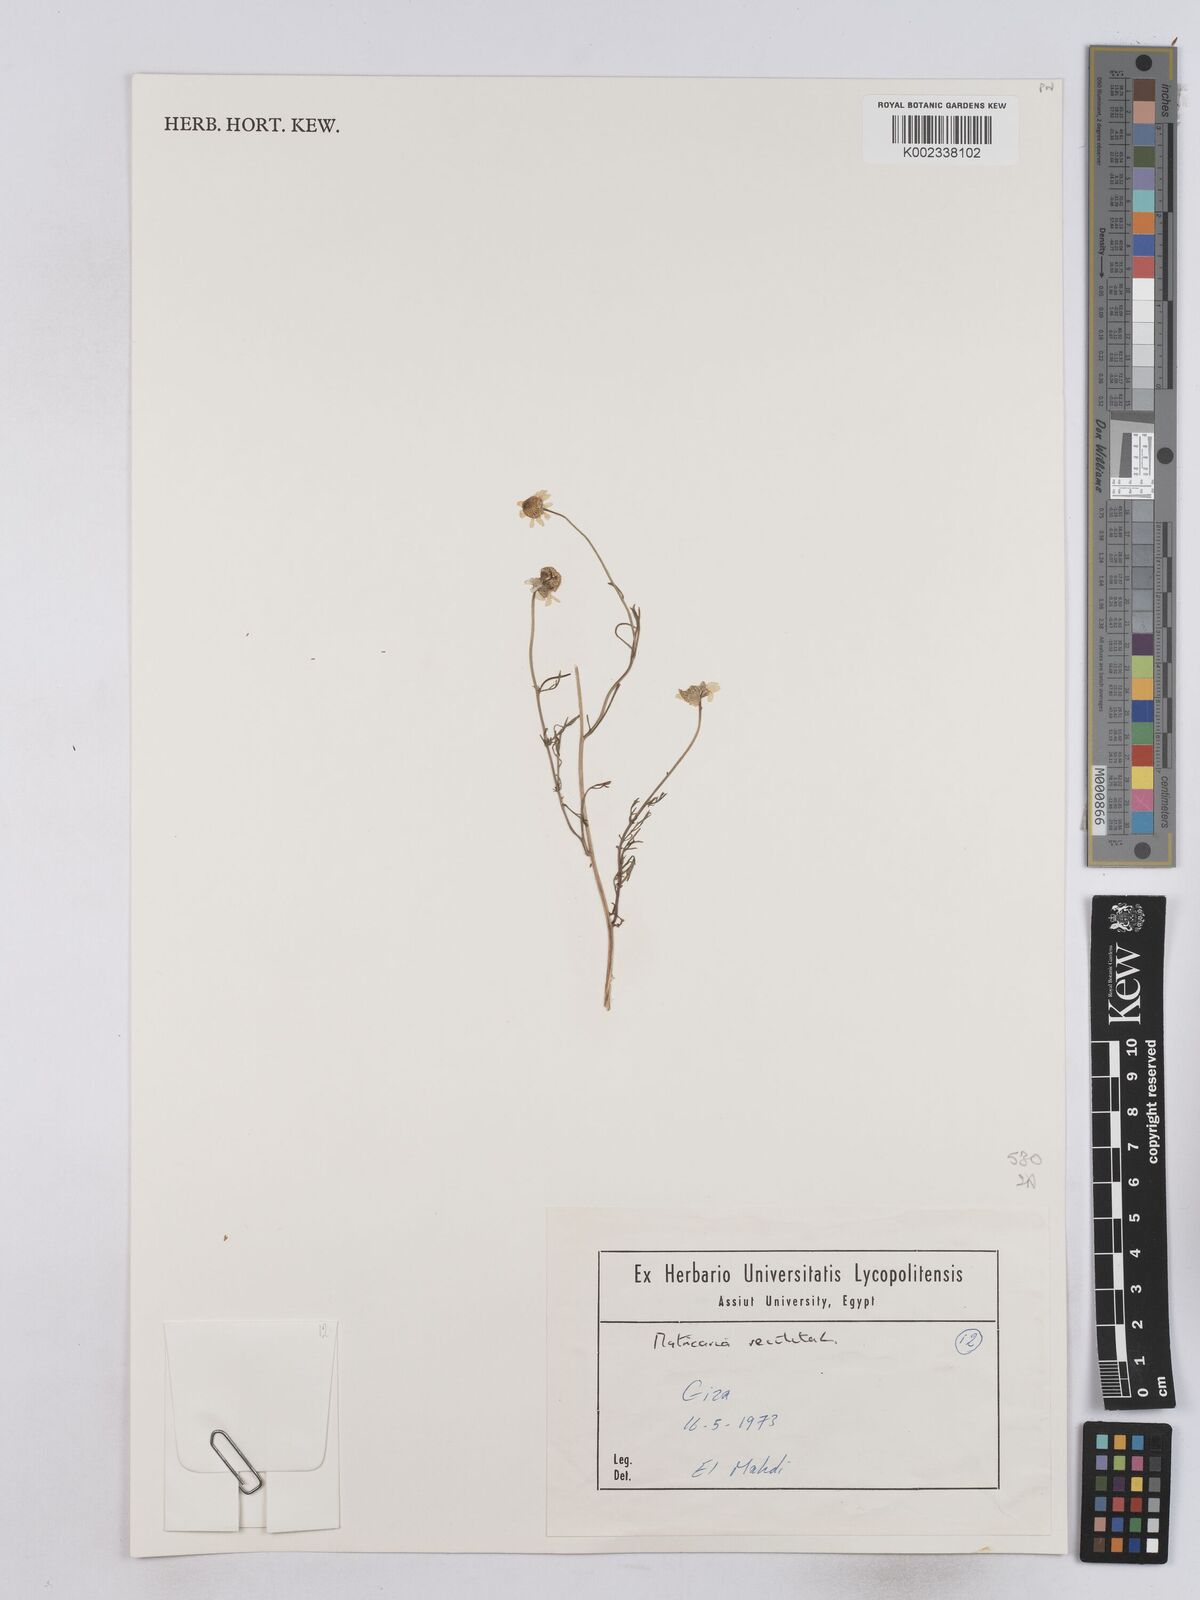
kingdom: Plantae
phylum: Tracheophyta
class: Magnoliopsida
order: Asterales
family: Asteraceae
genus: Matricaria
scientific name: Matricaria chamomilla
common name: Scented mayweed
